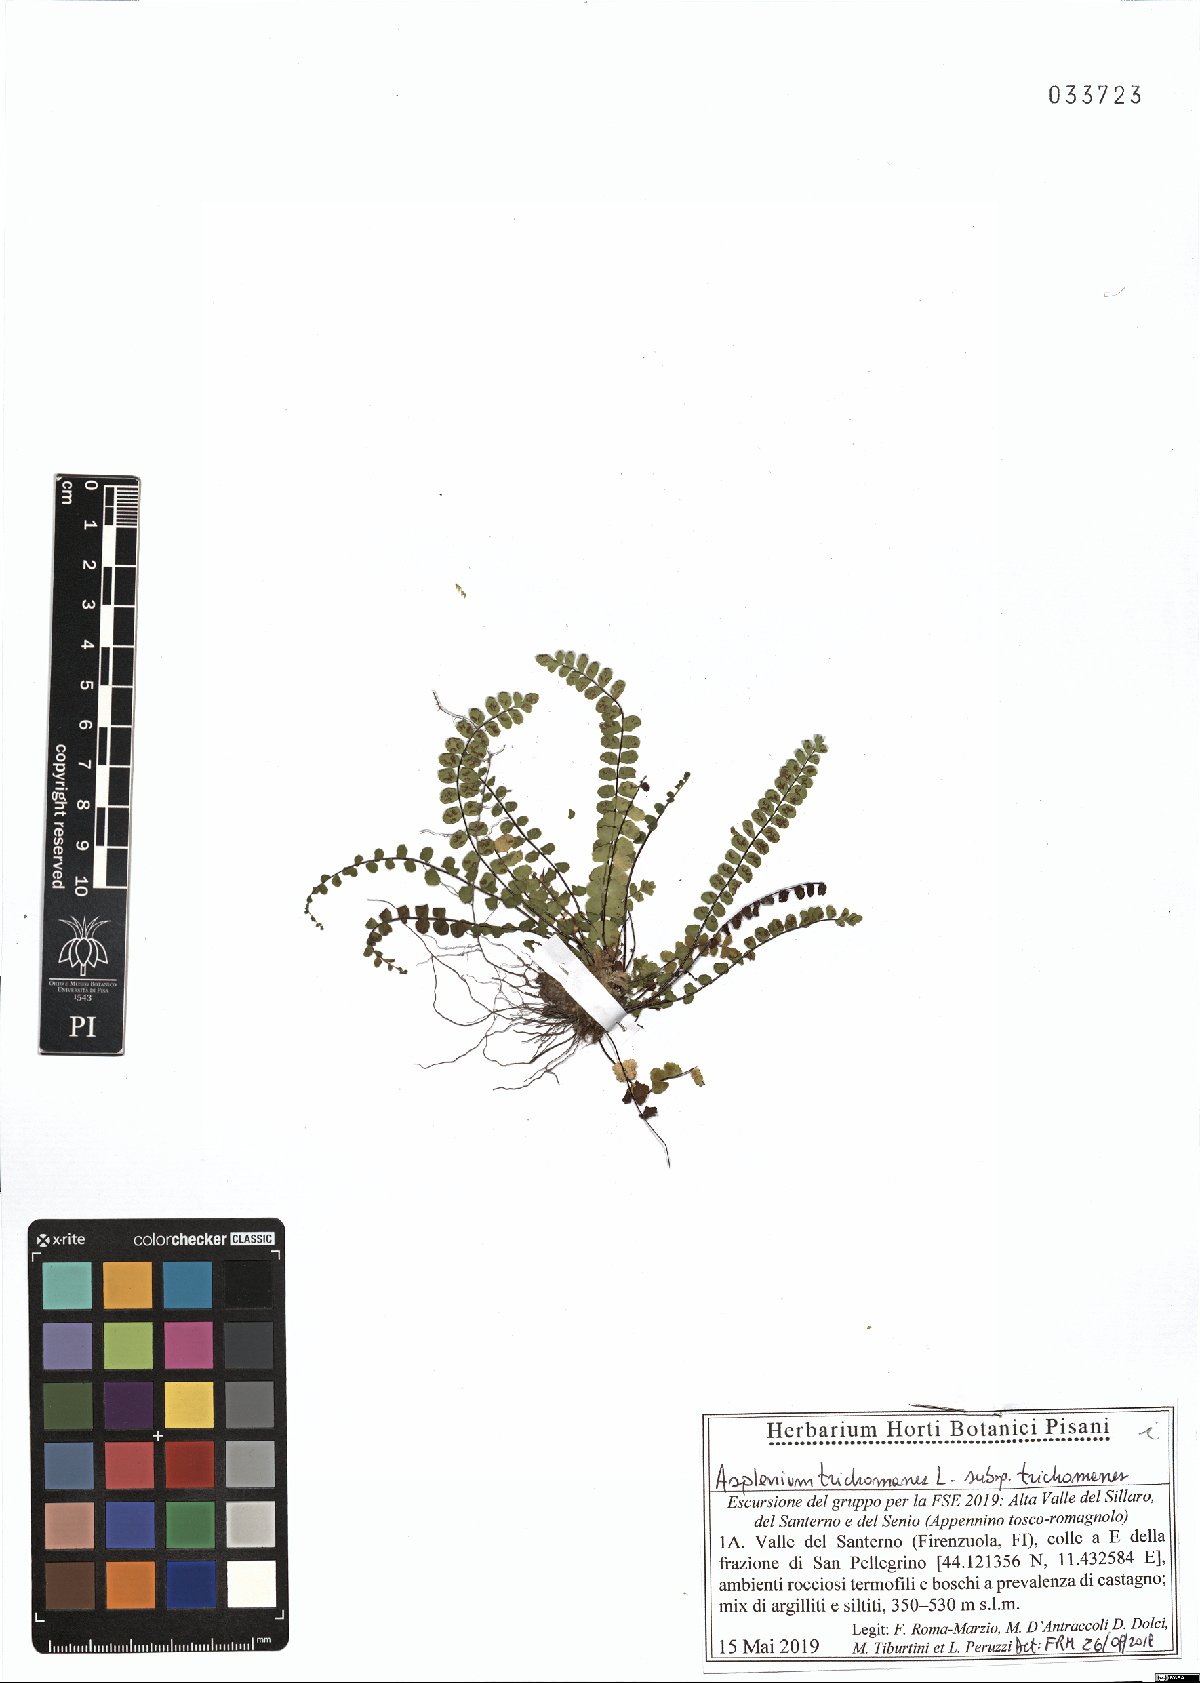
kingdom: Plantae
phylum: Tracheophyta
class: Polypodiopsida
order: Polypodiales
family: Aspleniaceae
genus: Asplenium
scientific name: Asplenium trichomanes
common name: Maidenhair spleenwort
